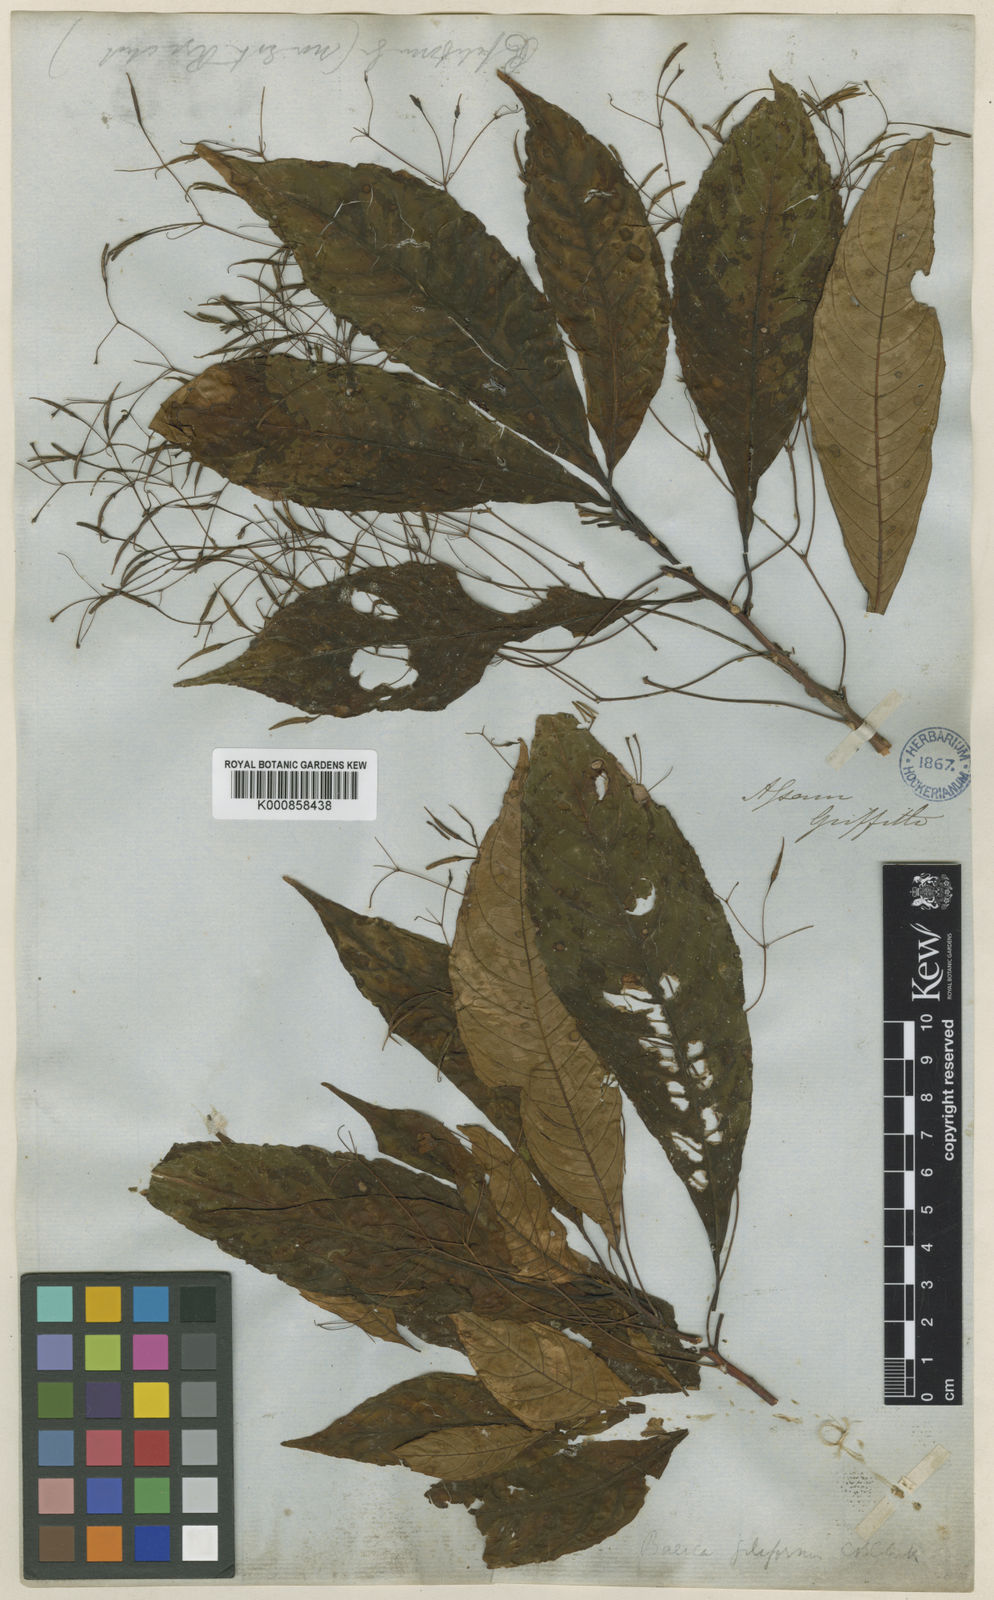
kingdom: Plantae
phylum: Tracheophyta
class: Magnoliopsida
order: Lamiales
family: Gesneriaceae
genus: Boeica
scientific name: Boeica filiformis
